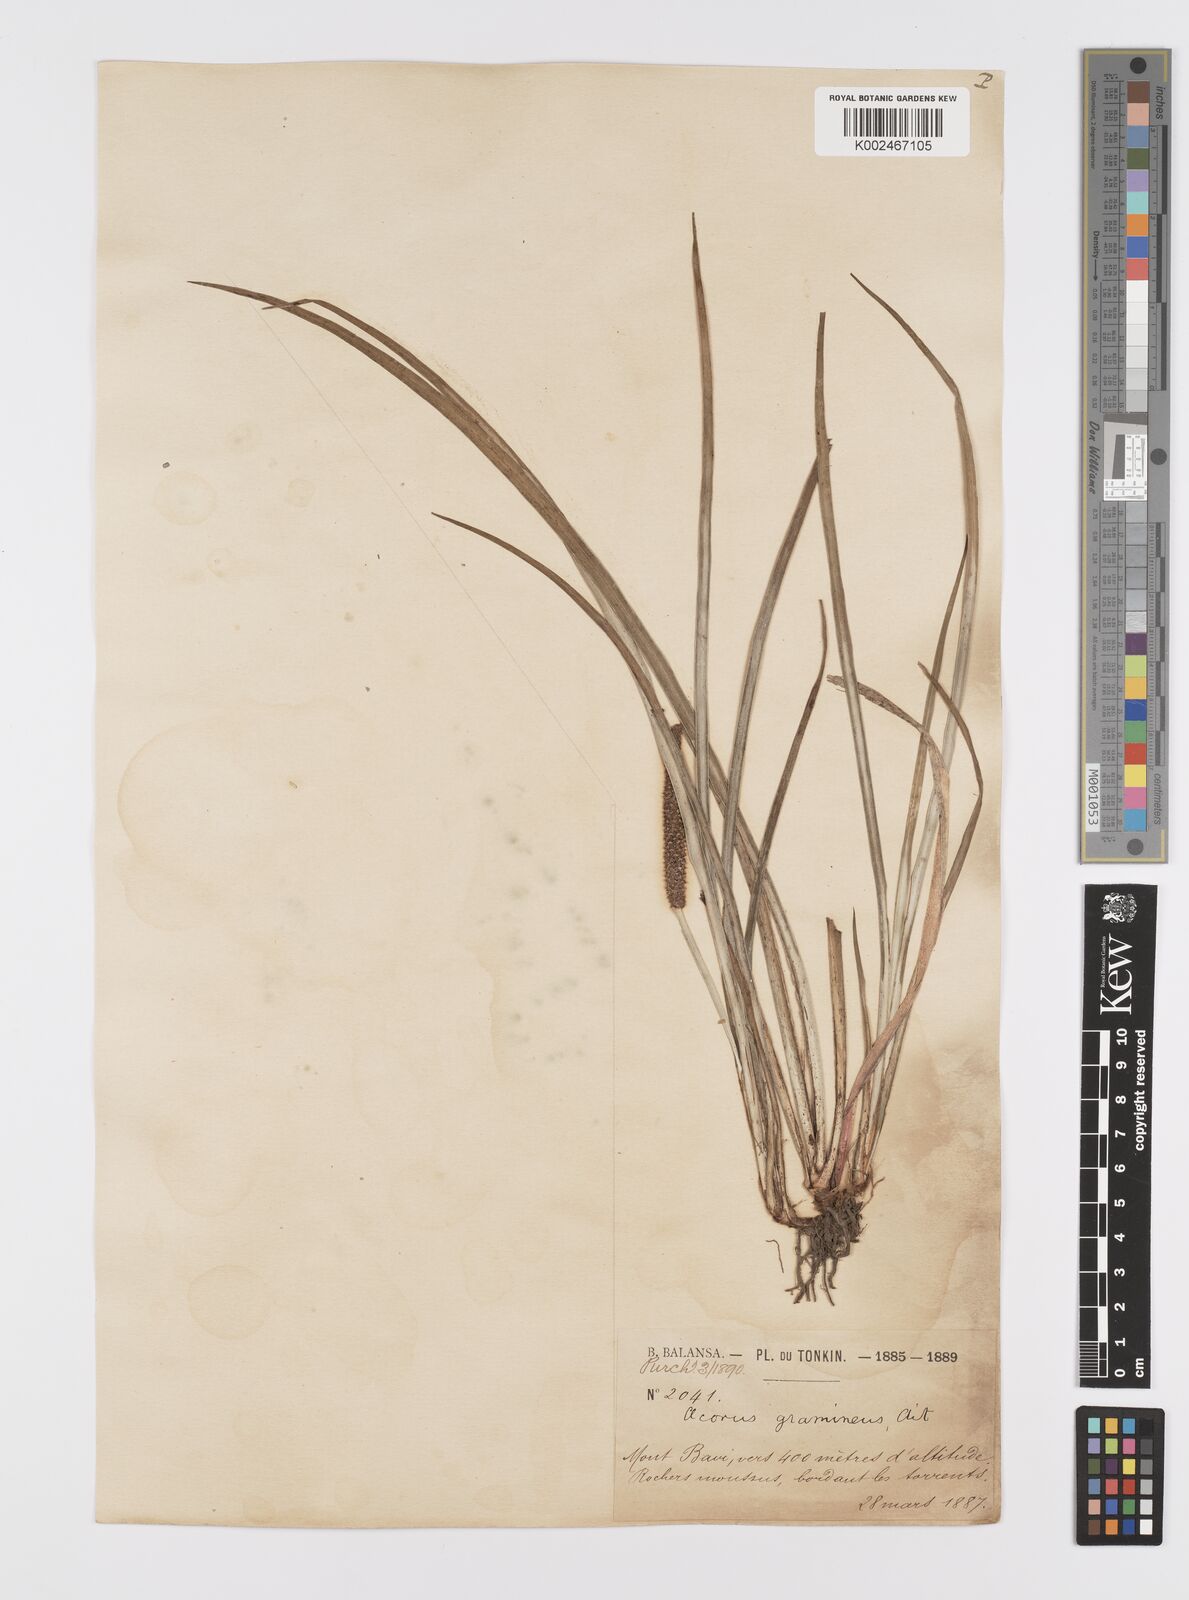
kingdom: Plantae
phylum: Tracheophyta
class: Liliopsida
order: Acorales
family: Acoraceae
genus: Acorus
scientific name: Acorus gramineus
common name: Slender sweet-flag
